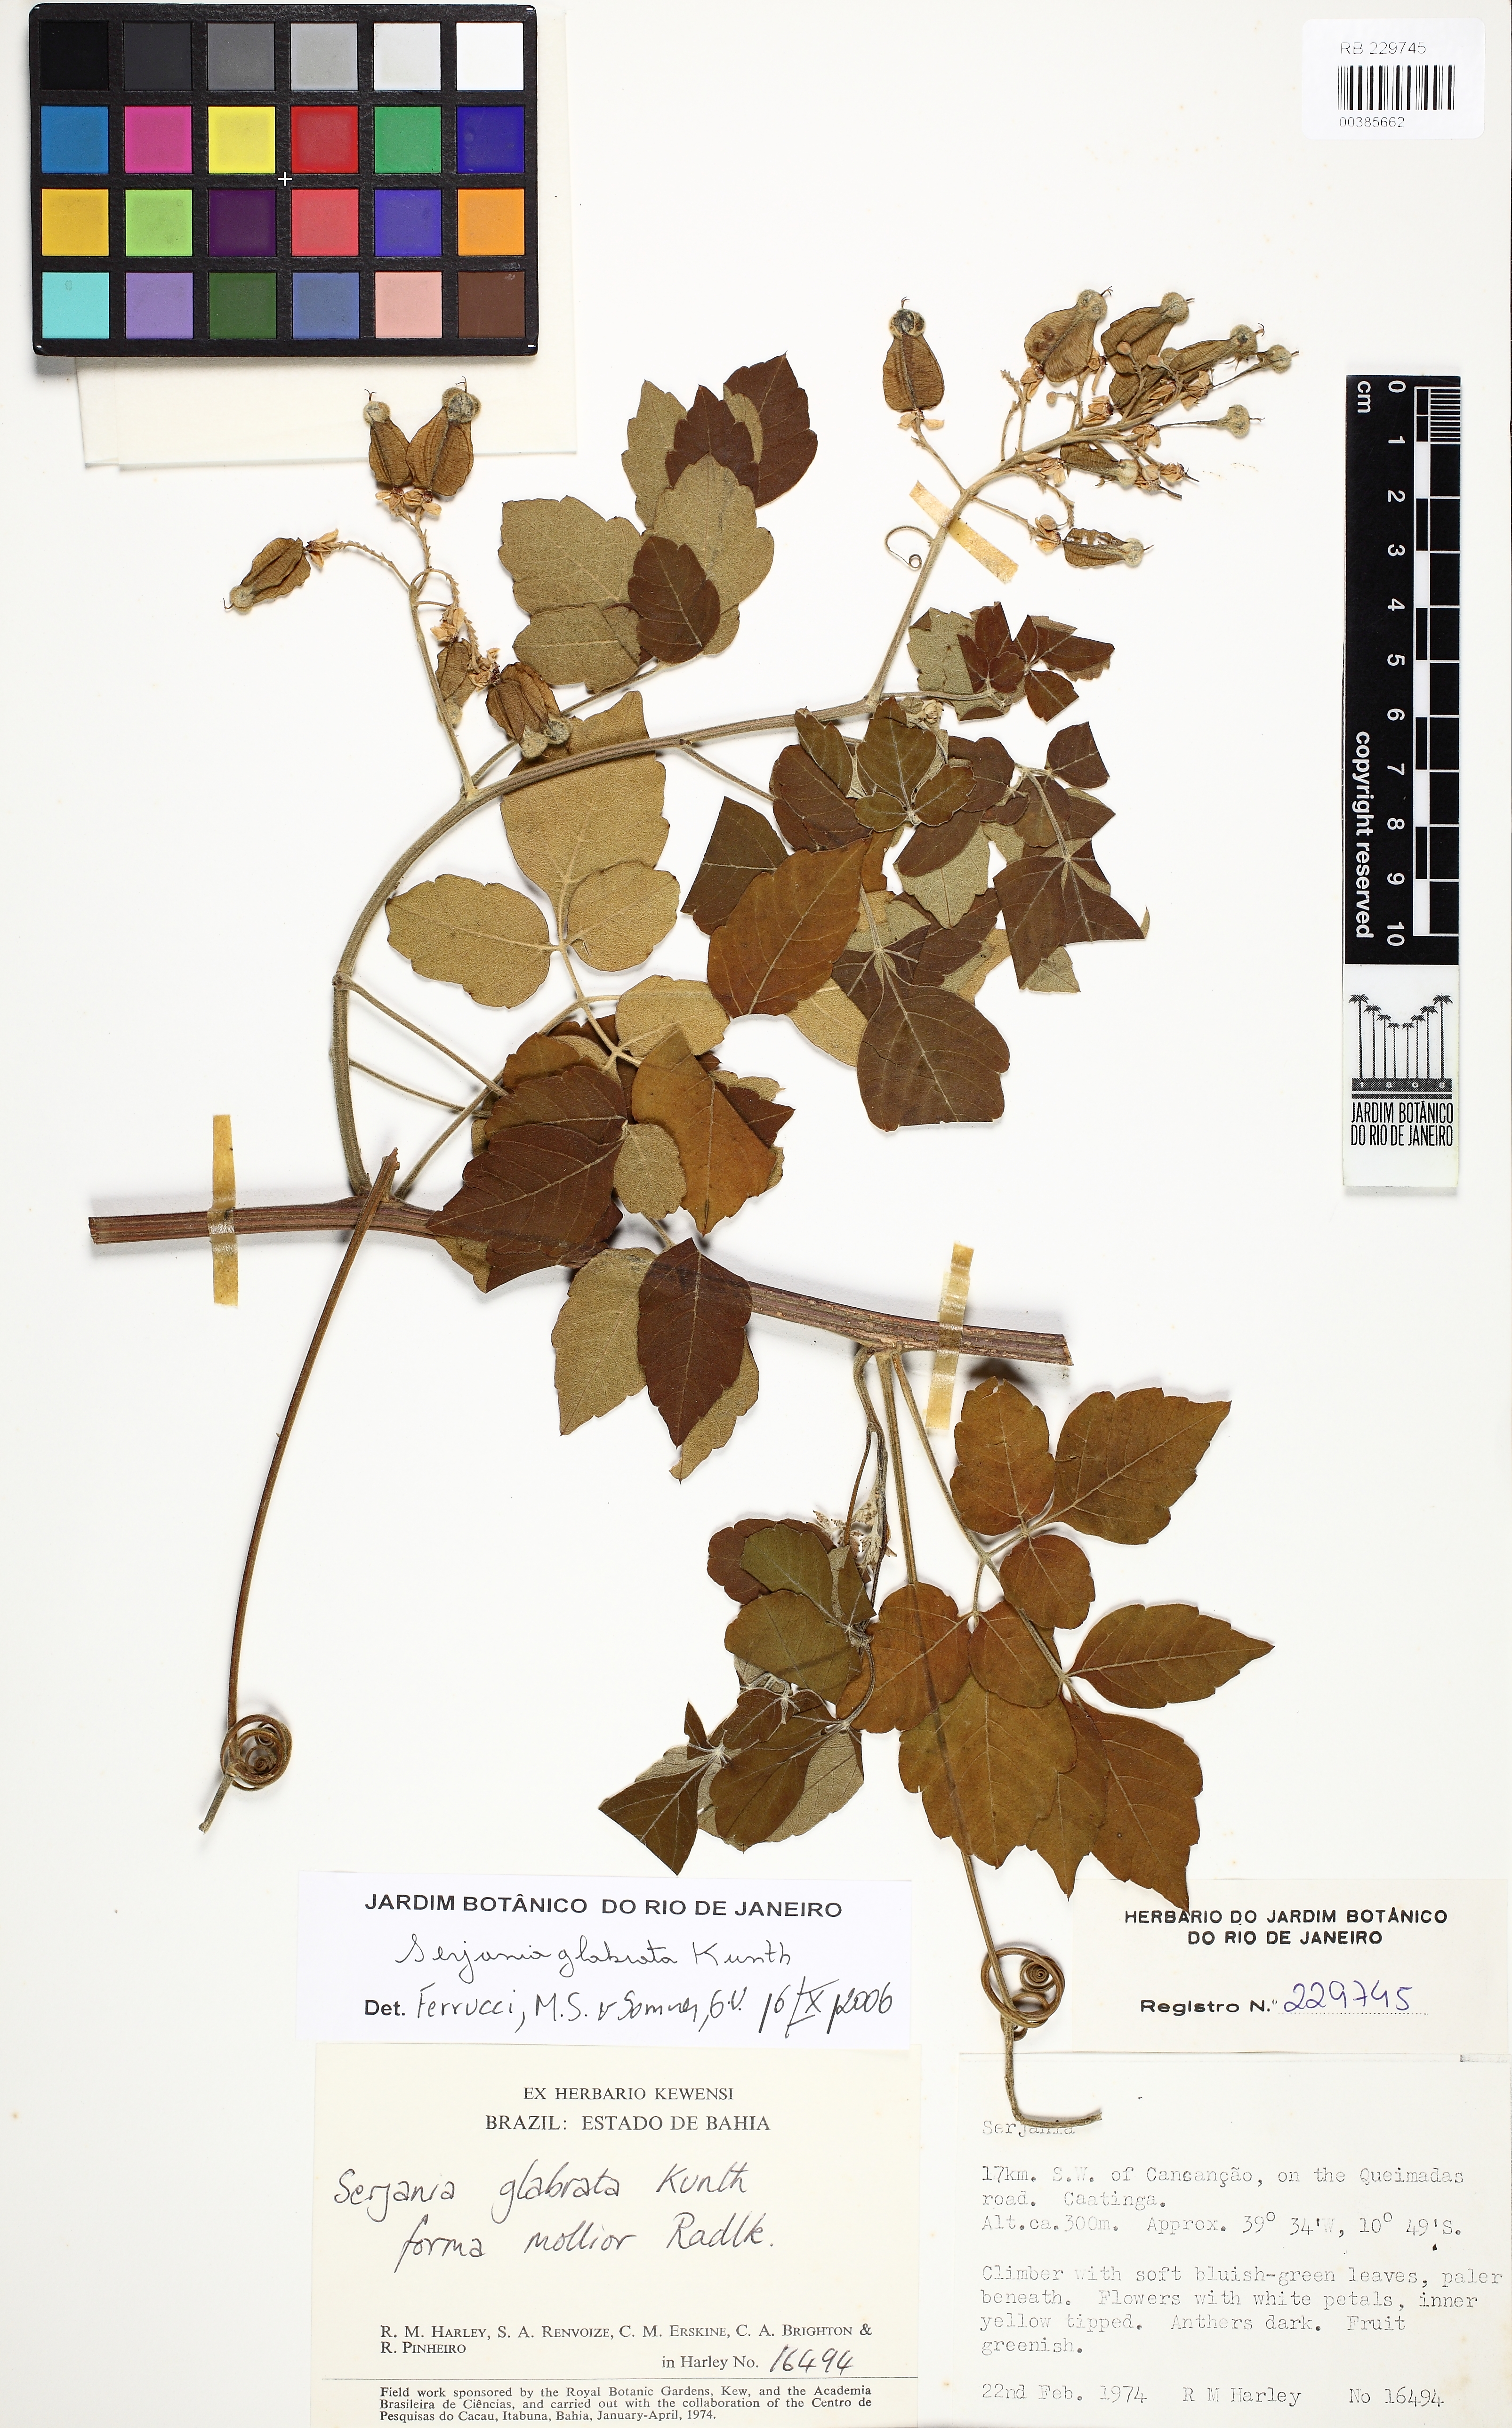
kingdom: Plantae
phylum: Tracheophyta
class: Magnoliopsida
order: Sapindales
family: Sapindaceae
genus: Serjania
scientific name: Serjania glabrata
